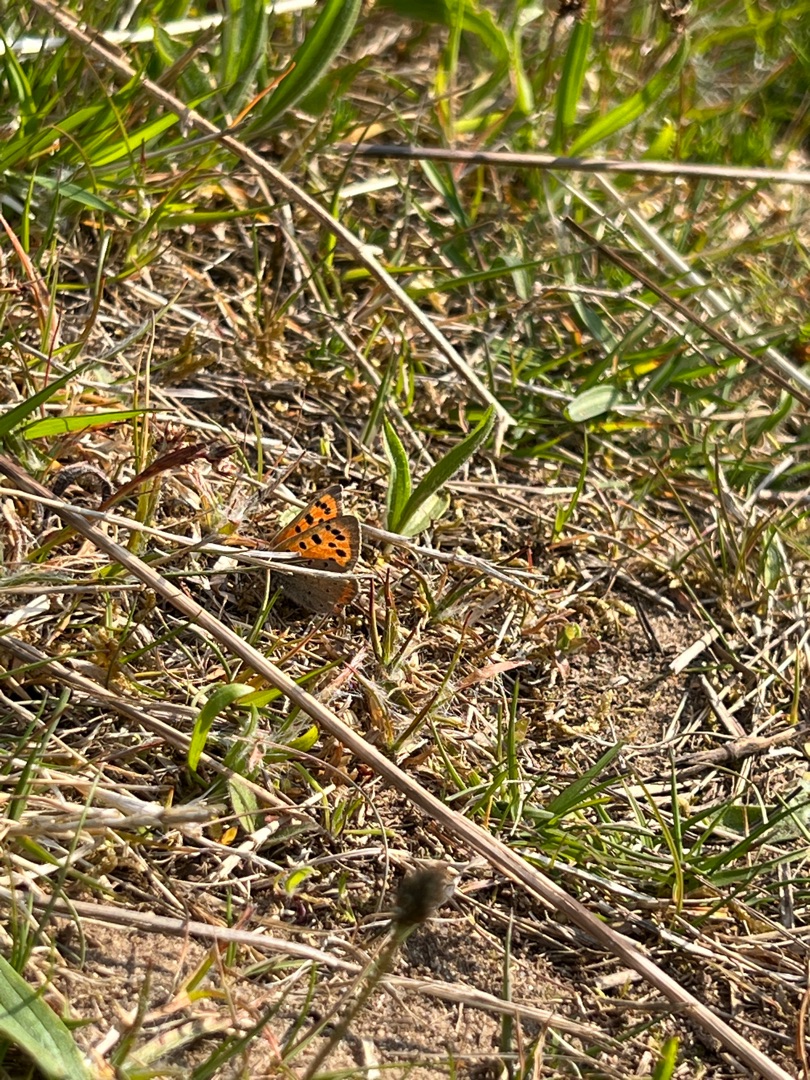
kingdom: Animalia
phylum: Arthropoda
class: Insecta
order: Lepidoptera
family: Lycaenidae
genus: Lycaena
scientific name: Lycaena phlaeas
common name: Lille ildfugl
